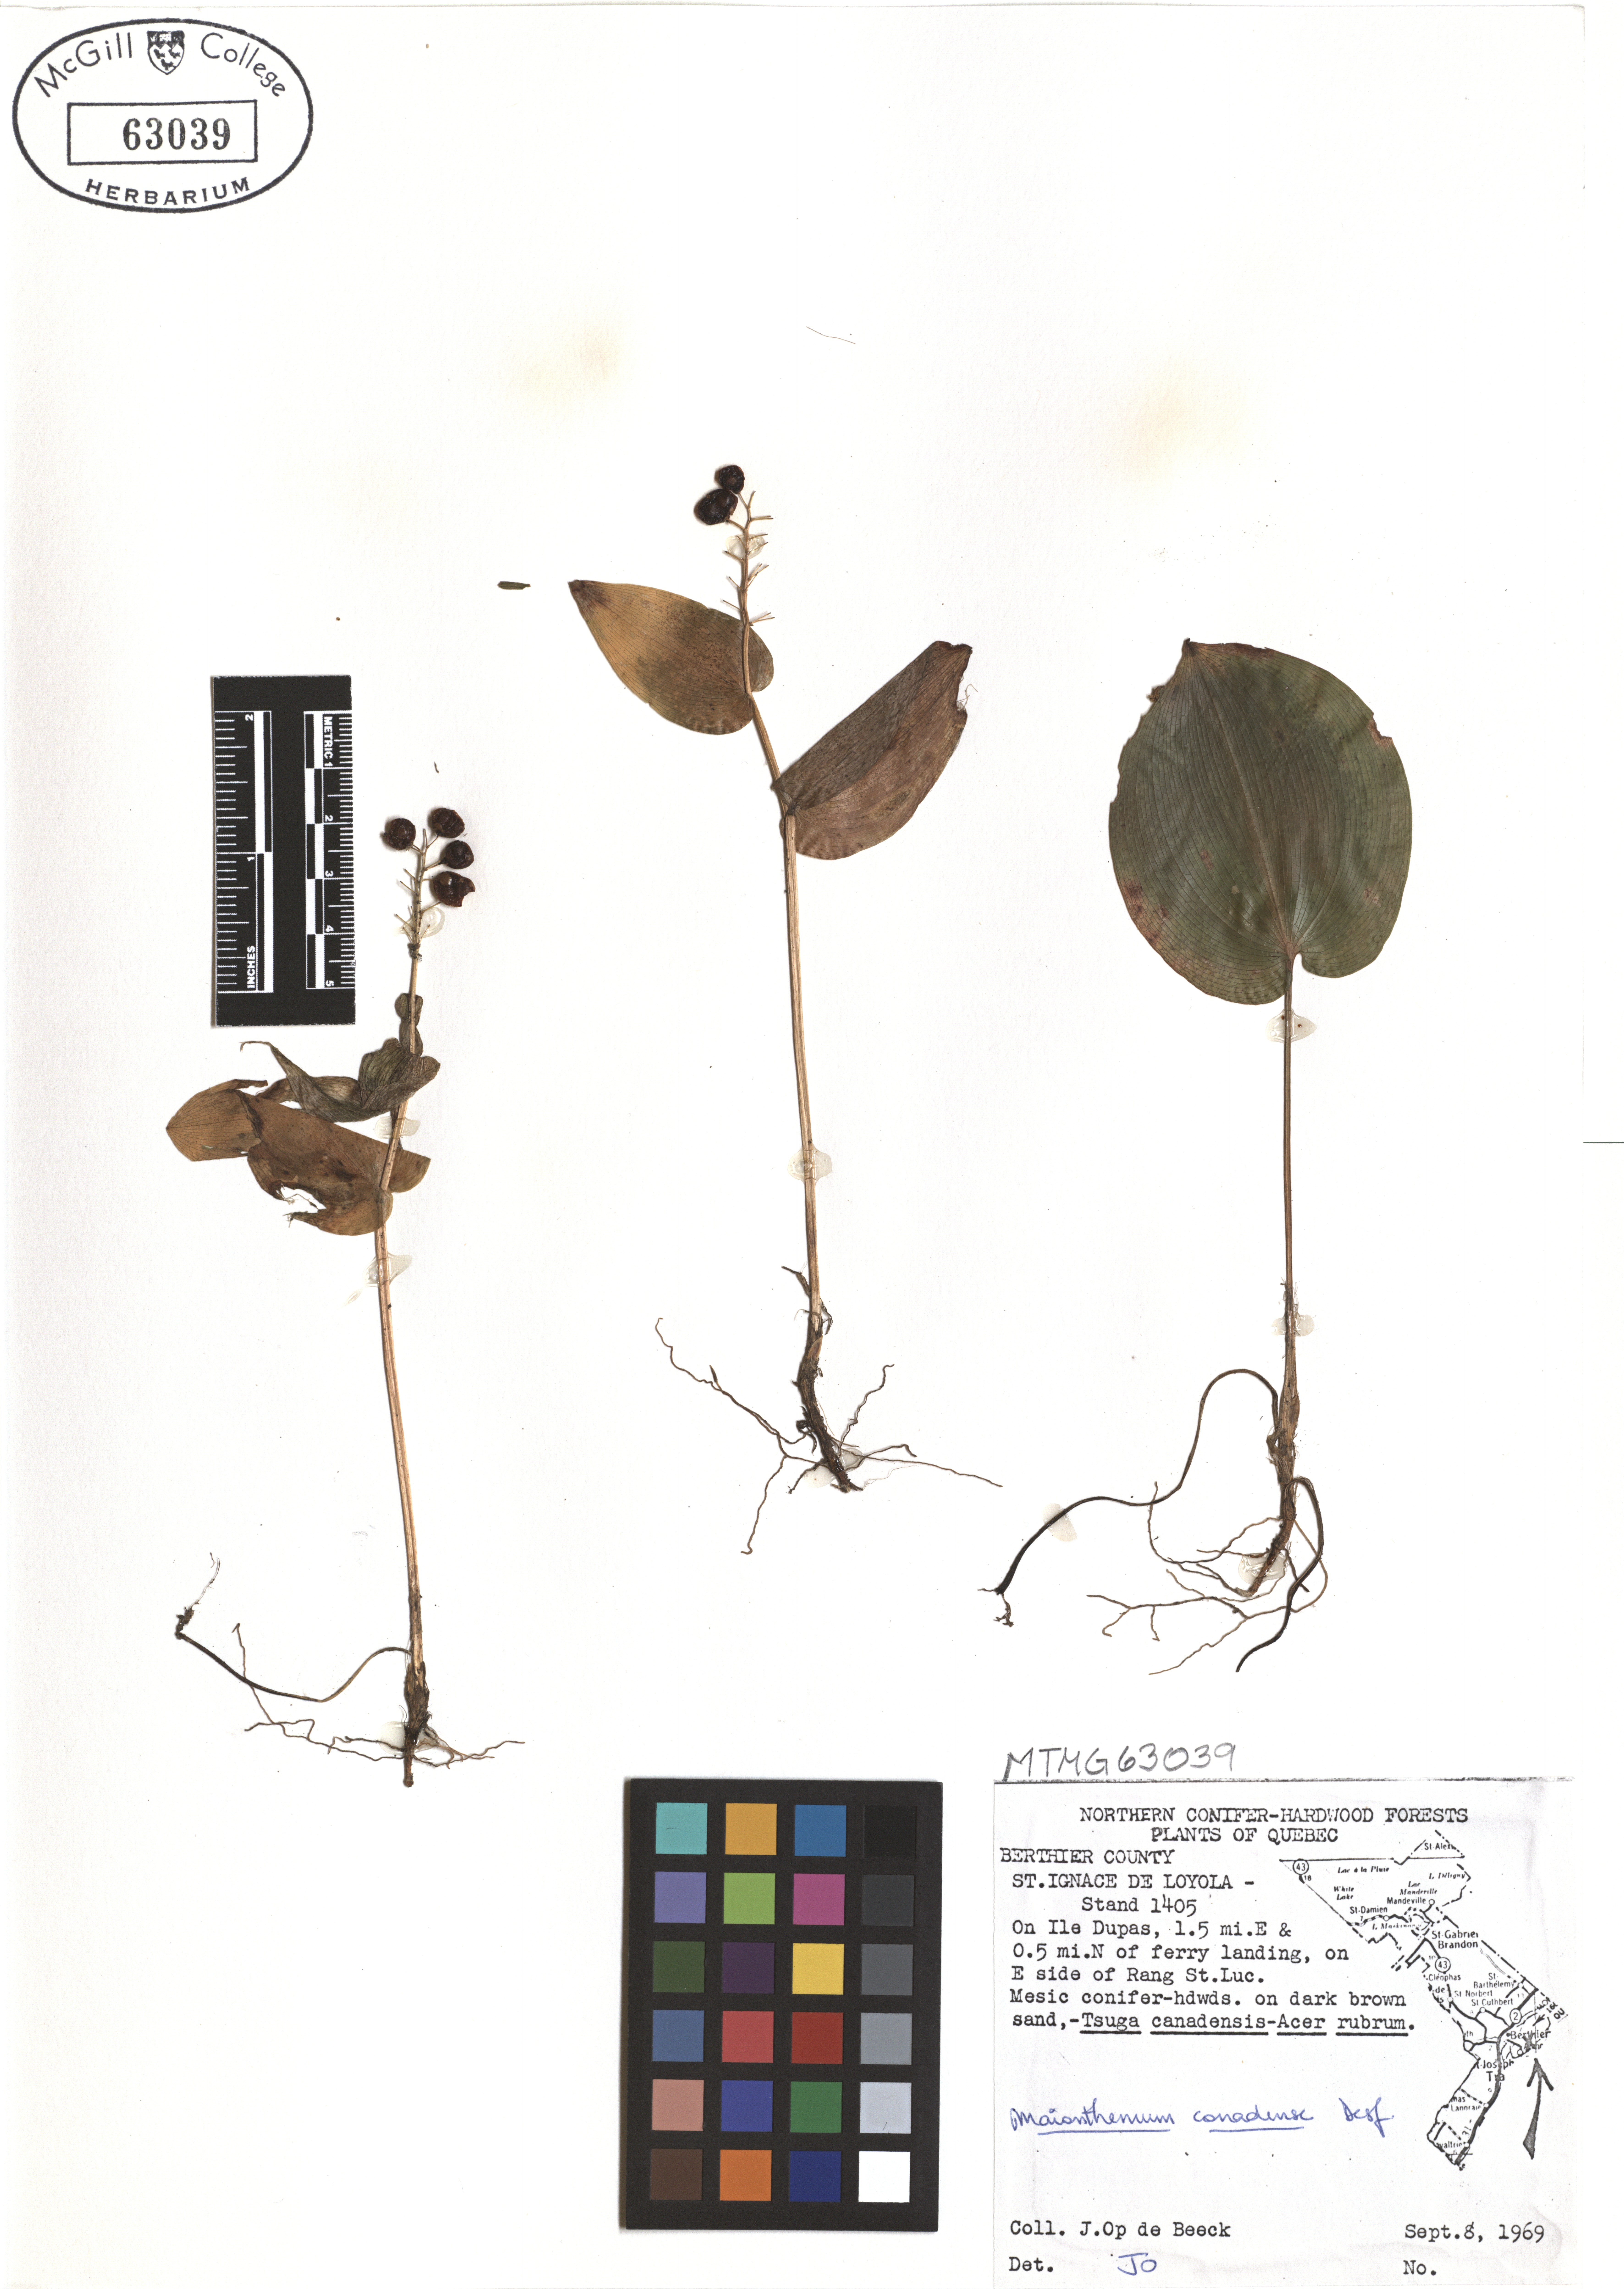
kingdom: Plantae
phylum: Tracheophyta
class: Liliopsida
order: Asparagales
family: Asparagaceae
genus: Maianthemum
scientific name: Maianthemum canadense
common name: False lily-of-the-valley
